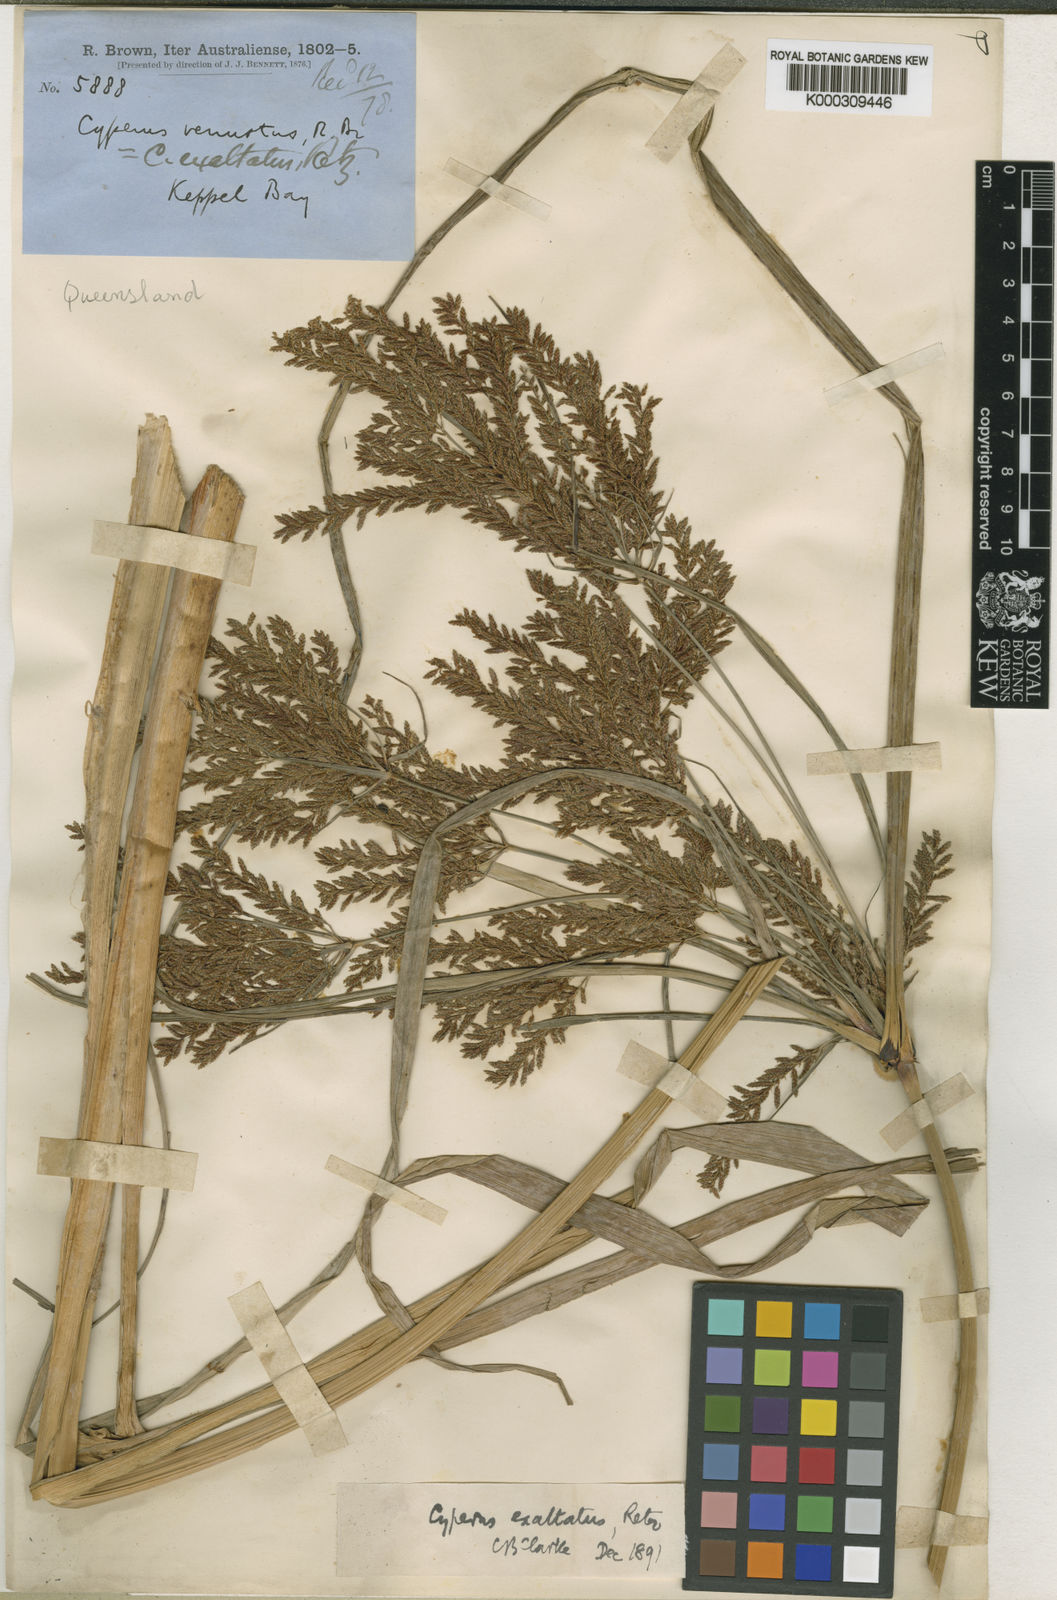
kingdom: Plantae
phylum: Tracheophyta
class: Liliopsida
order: Poales
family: Cyperaceae
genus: Cyperus
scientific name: Cyperus exaltatus
